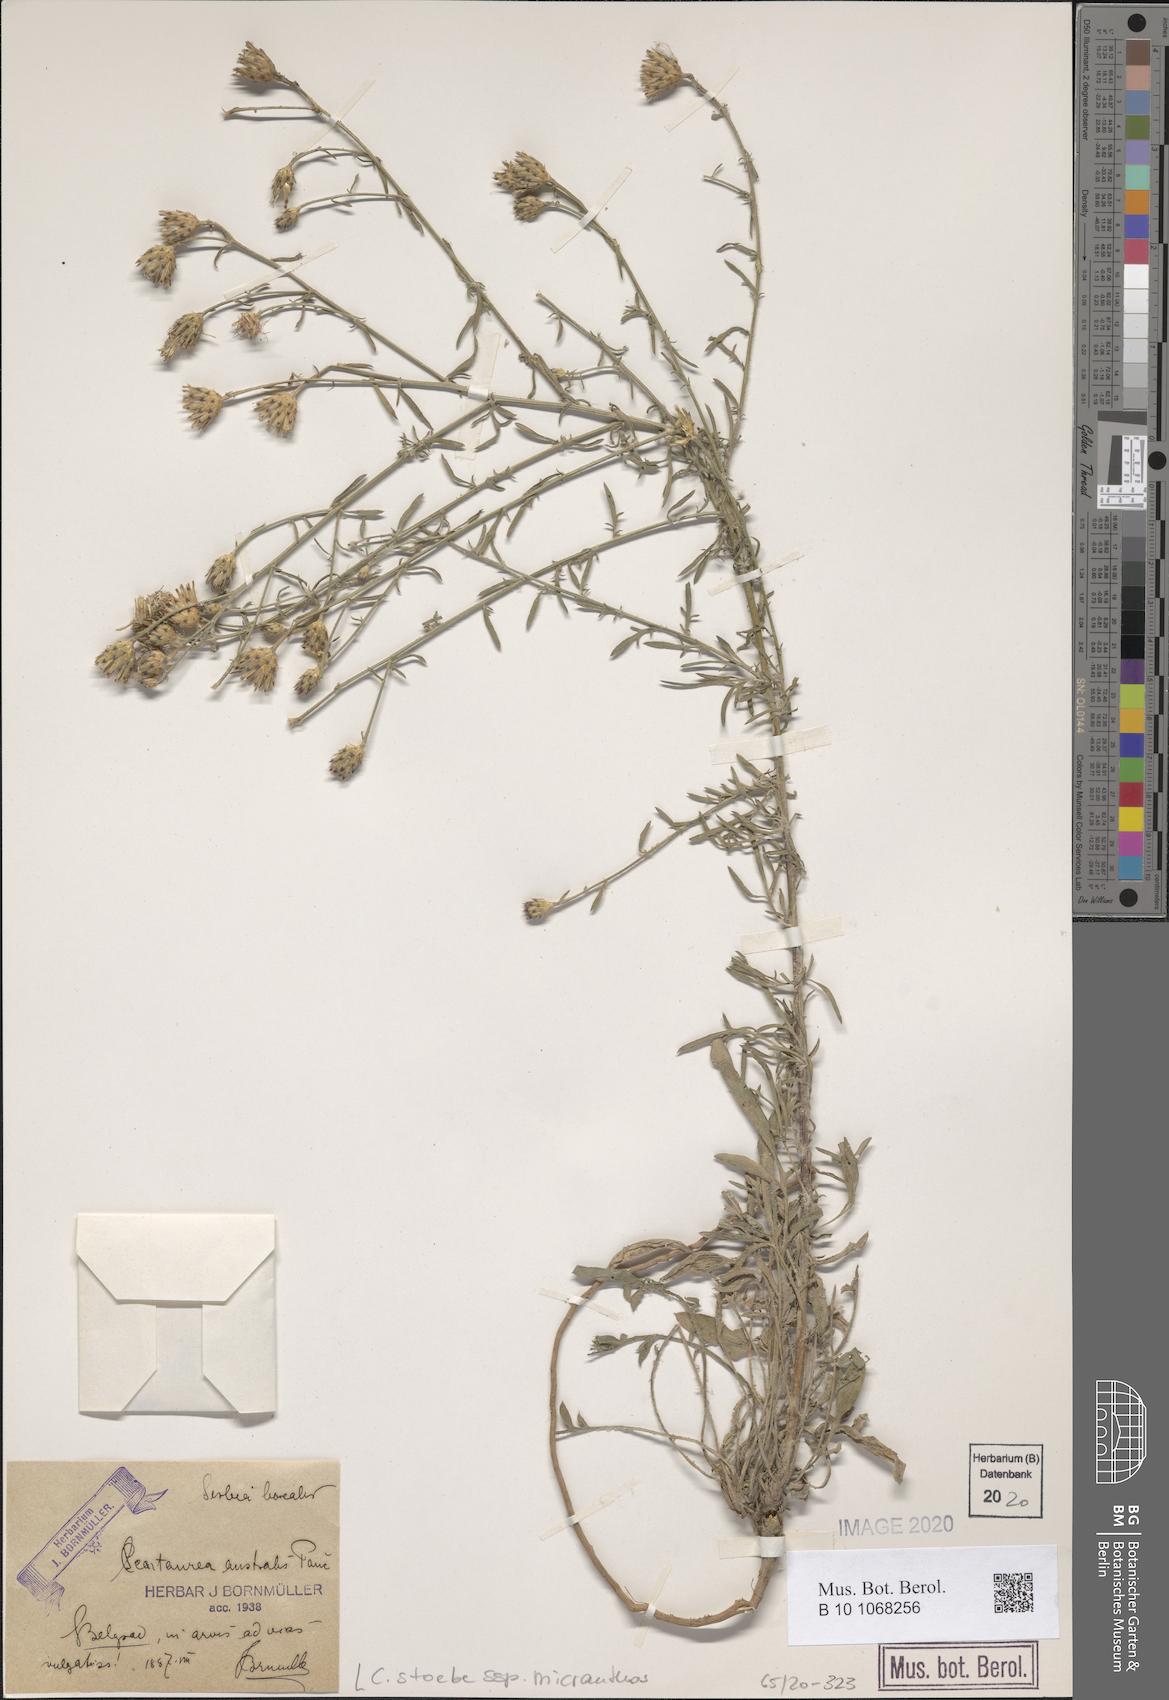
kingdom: Plantae
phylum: Tracheophyta
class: Magnoliopsida
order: Asterales
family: Asteraceae
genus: Centaurea
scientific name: Centaurea australis
